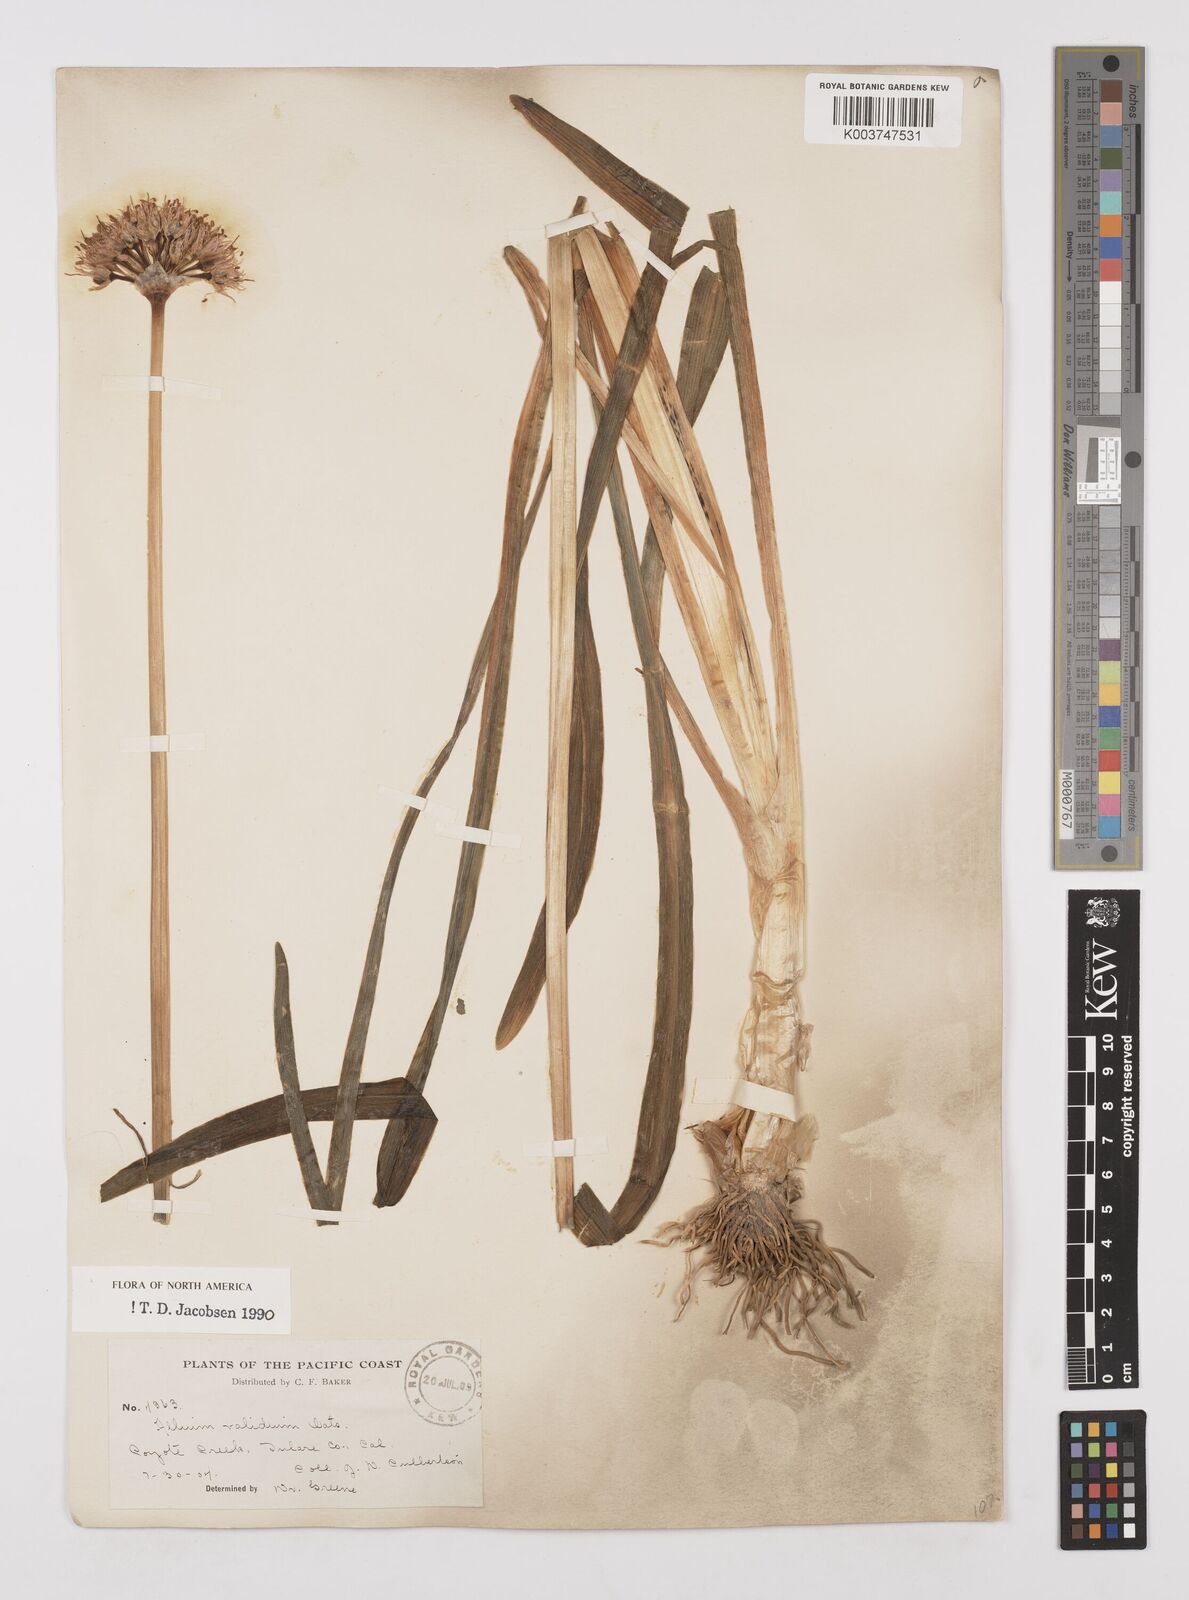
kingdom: Plantae
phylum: Tracheophyta
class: Liliopsida
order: Asparagales
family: Amaryllidaceae
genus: Allium
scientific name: Allium validum
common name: Pacific mountain onion
